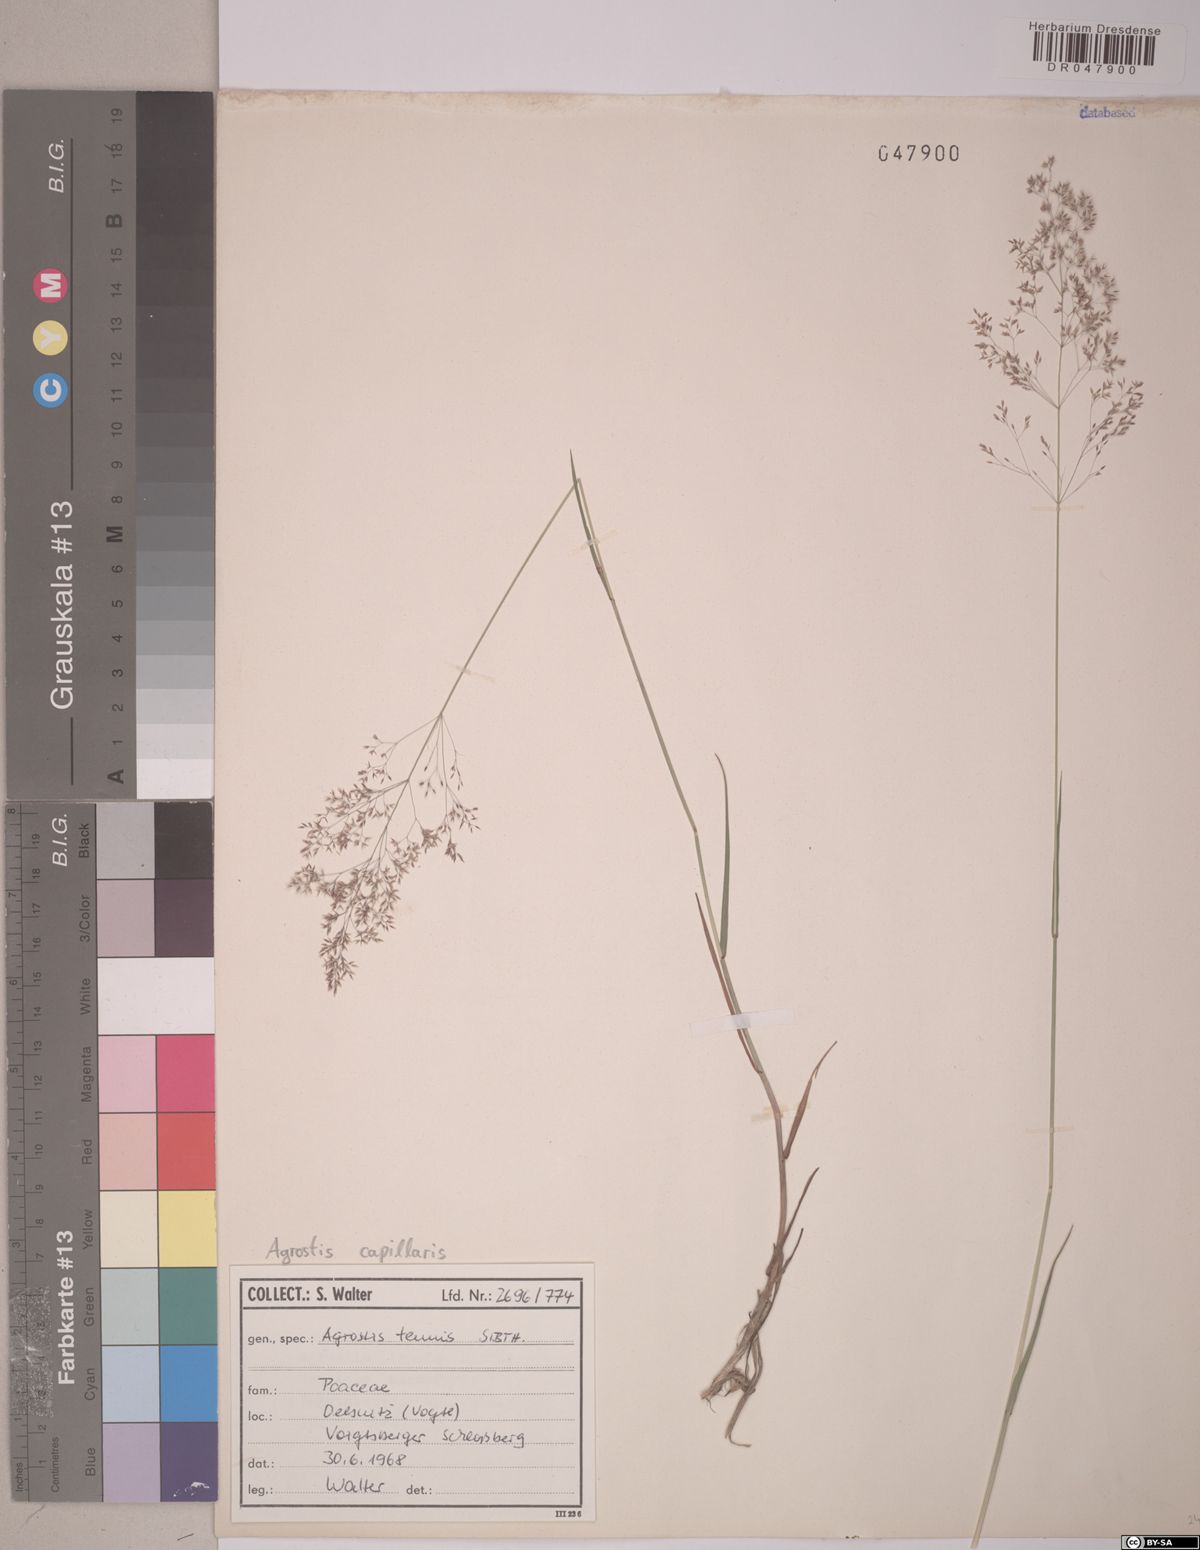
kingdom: Plantae
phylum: Tracheophyta
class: Liliopsida
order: Poales
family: Poaceae
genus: Agrostis
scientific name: Agrostis capillaris
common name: Colonial bentgrass
